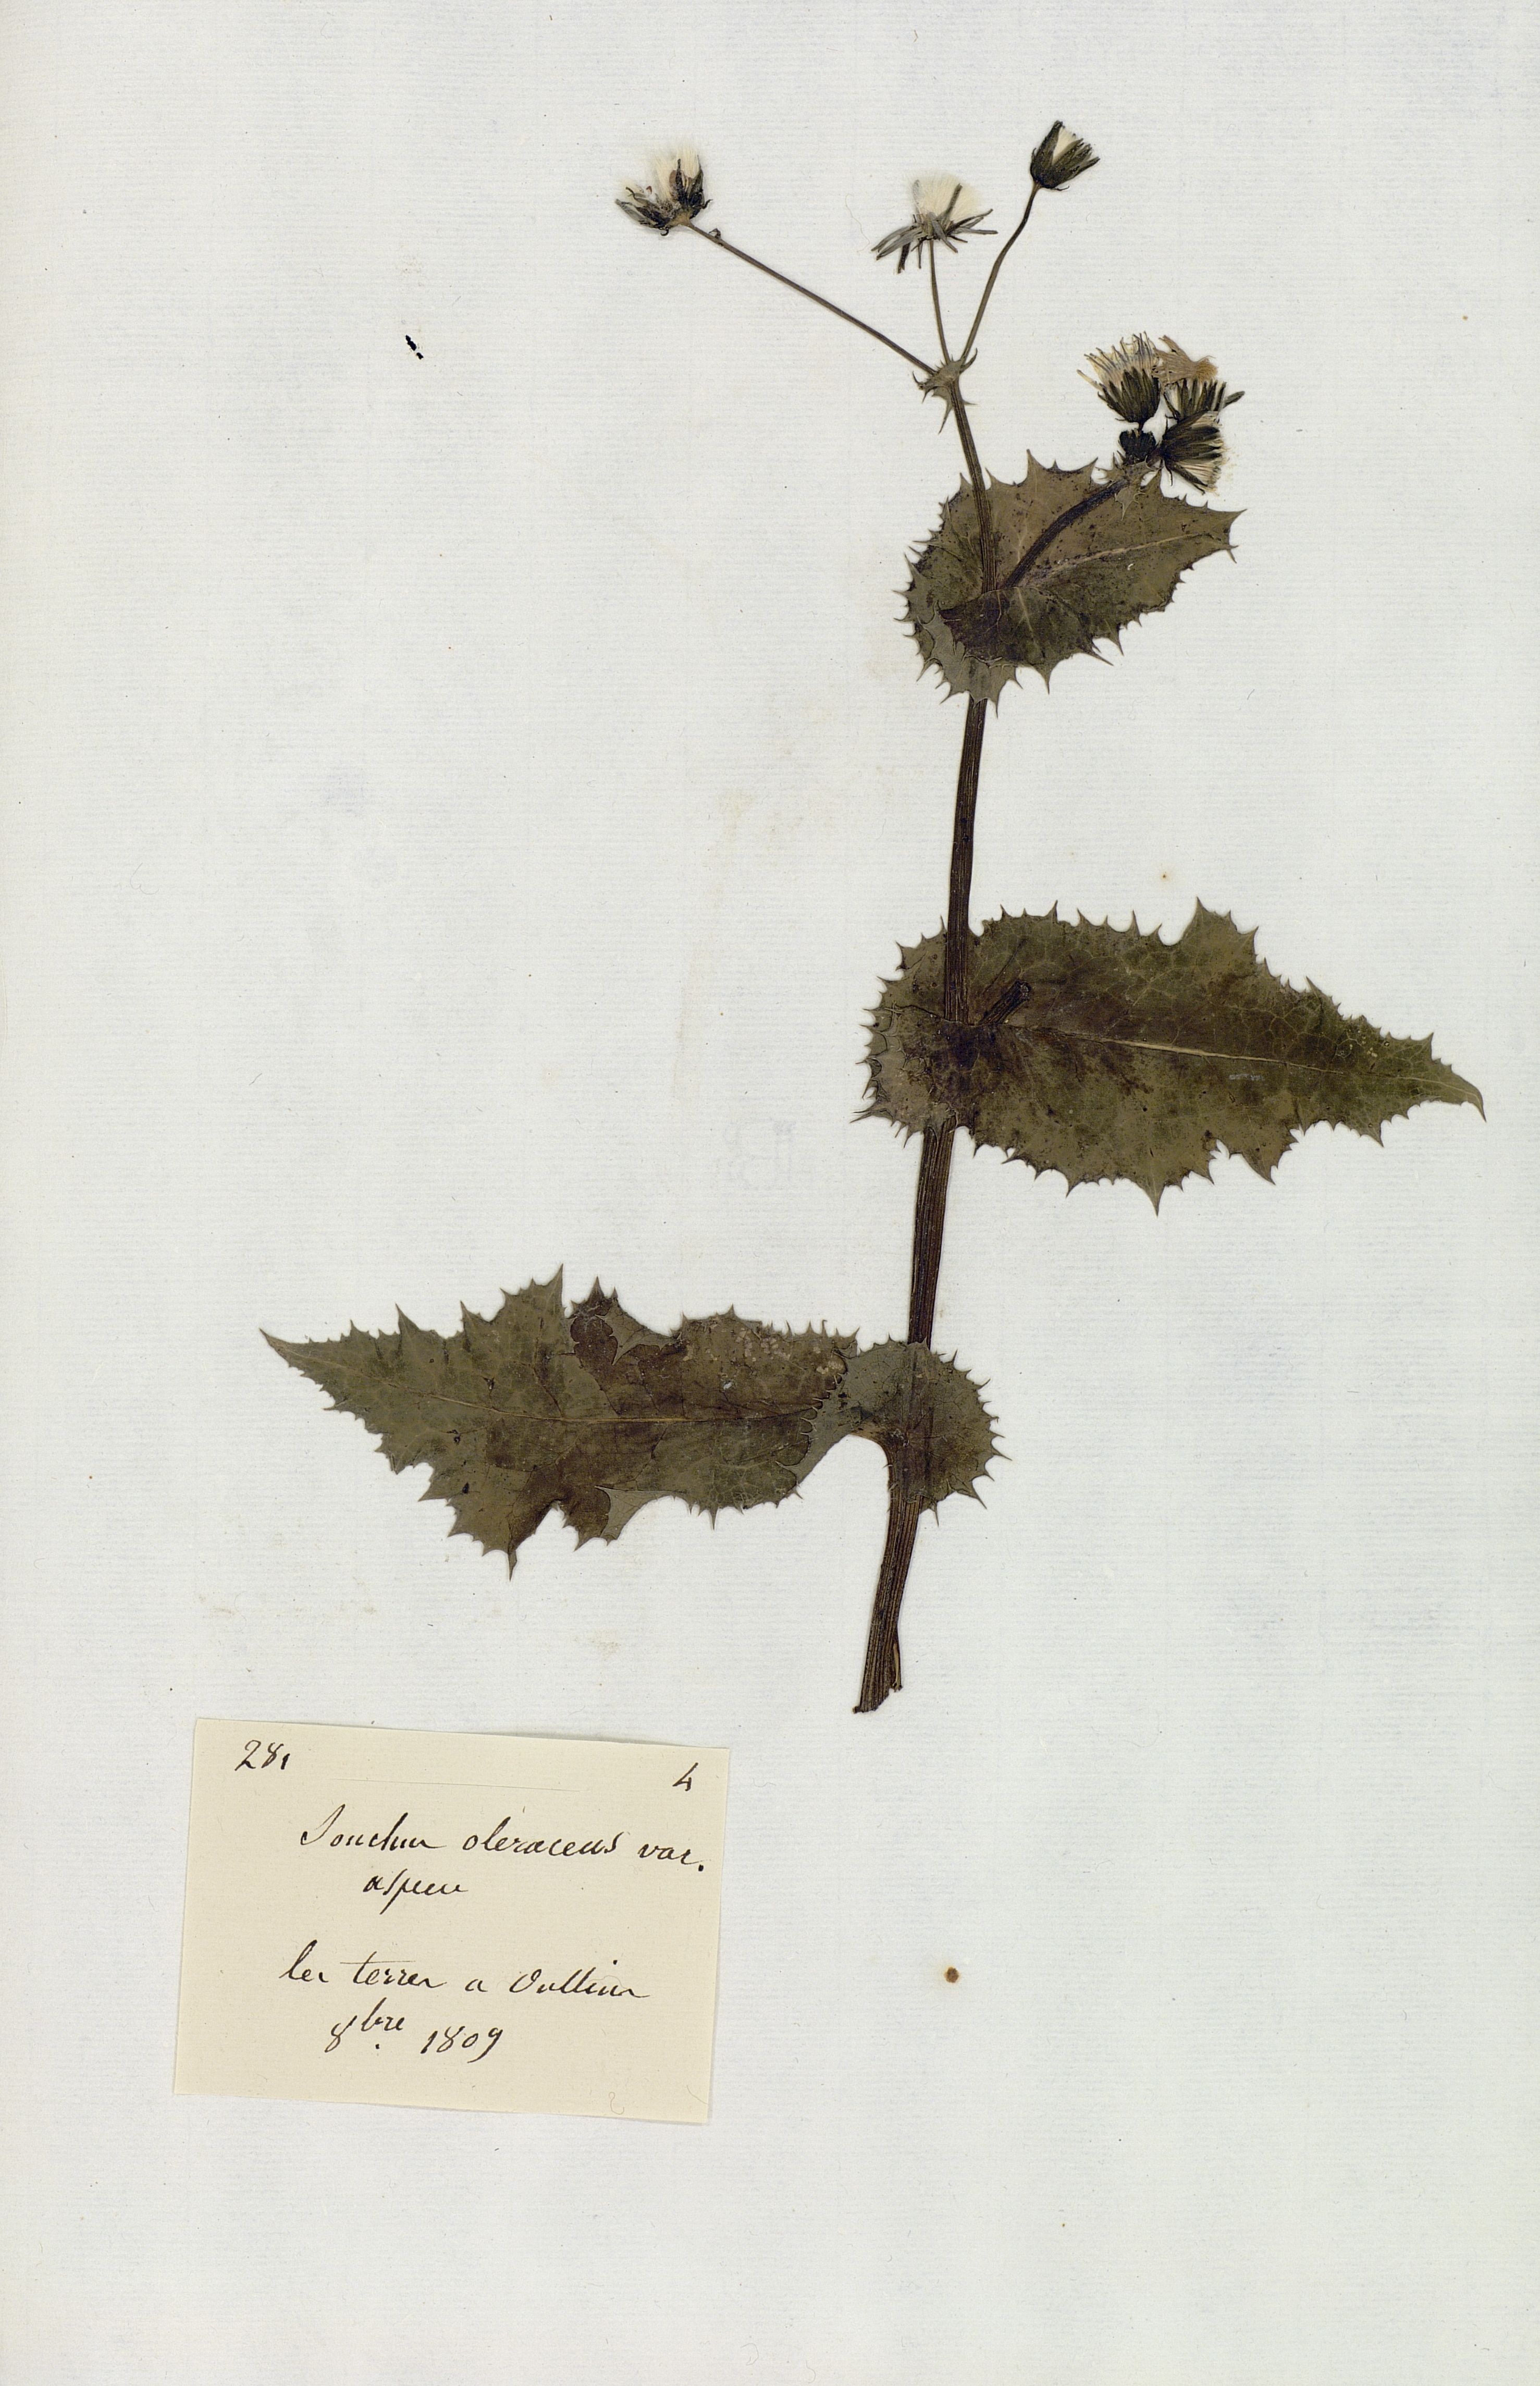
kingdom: Plantae
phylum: Tracheophyta
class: Magnoliopsida
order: Asterales
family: Asteraceae
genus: Sonchus
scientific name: Sonchus oleraceus
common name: Common sowthistle
